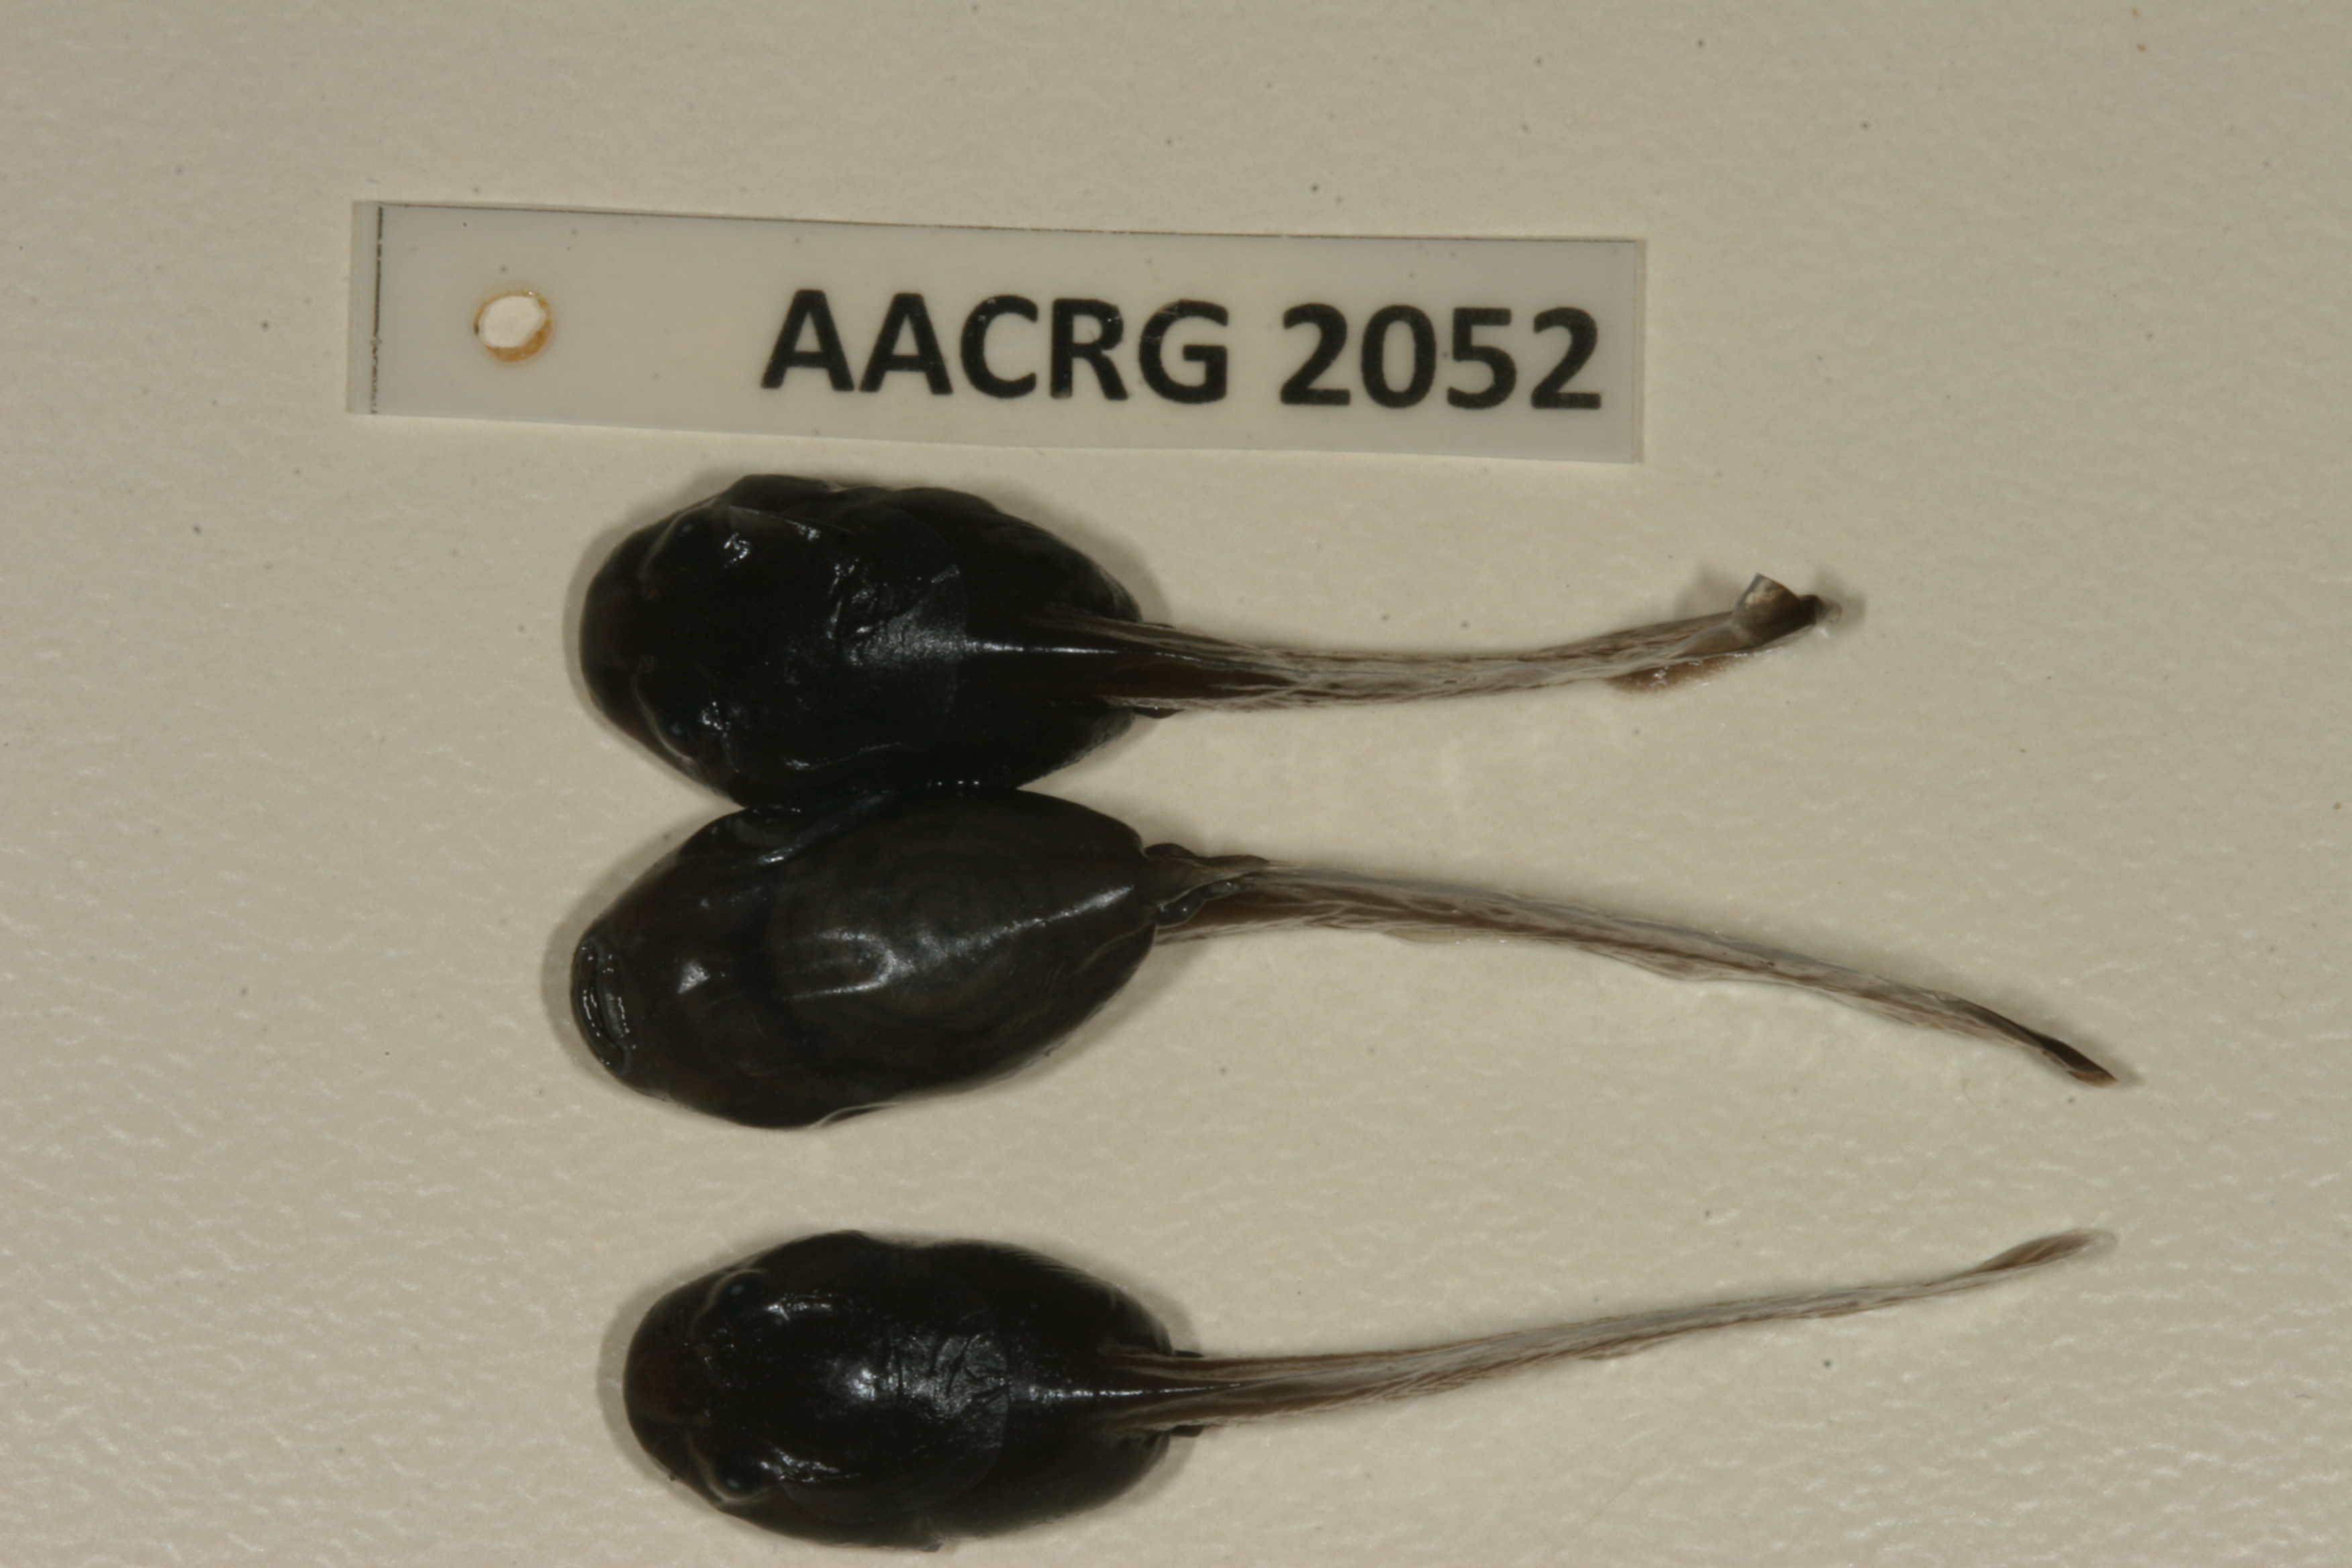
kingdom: Animalia
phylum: Chordata
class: Amphibia
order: Anura
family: Bufonidae
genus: Schismaderma
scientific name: Schismaderma carens
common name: African split-skin toad
